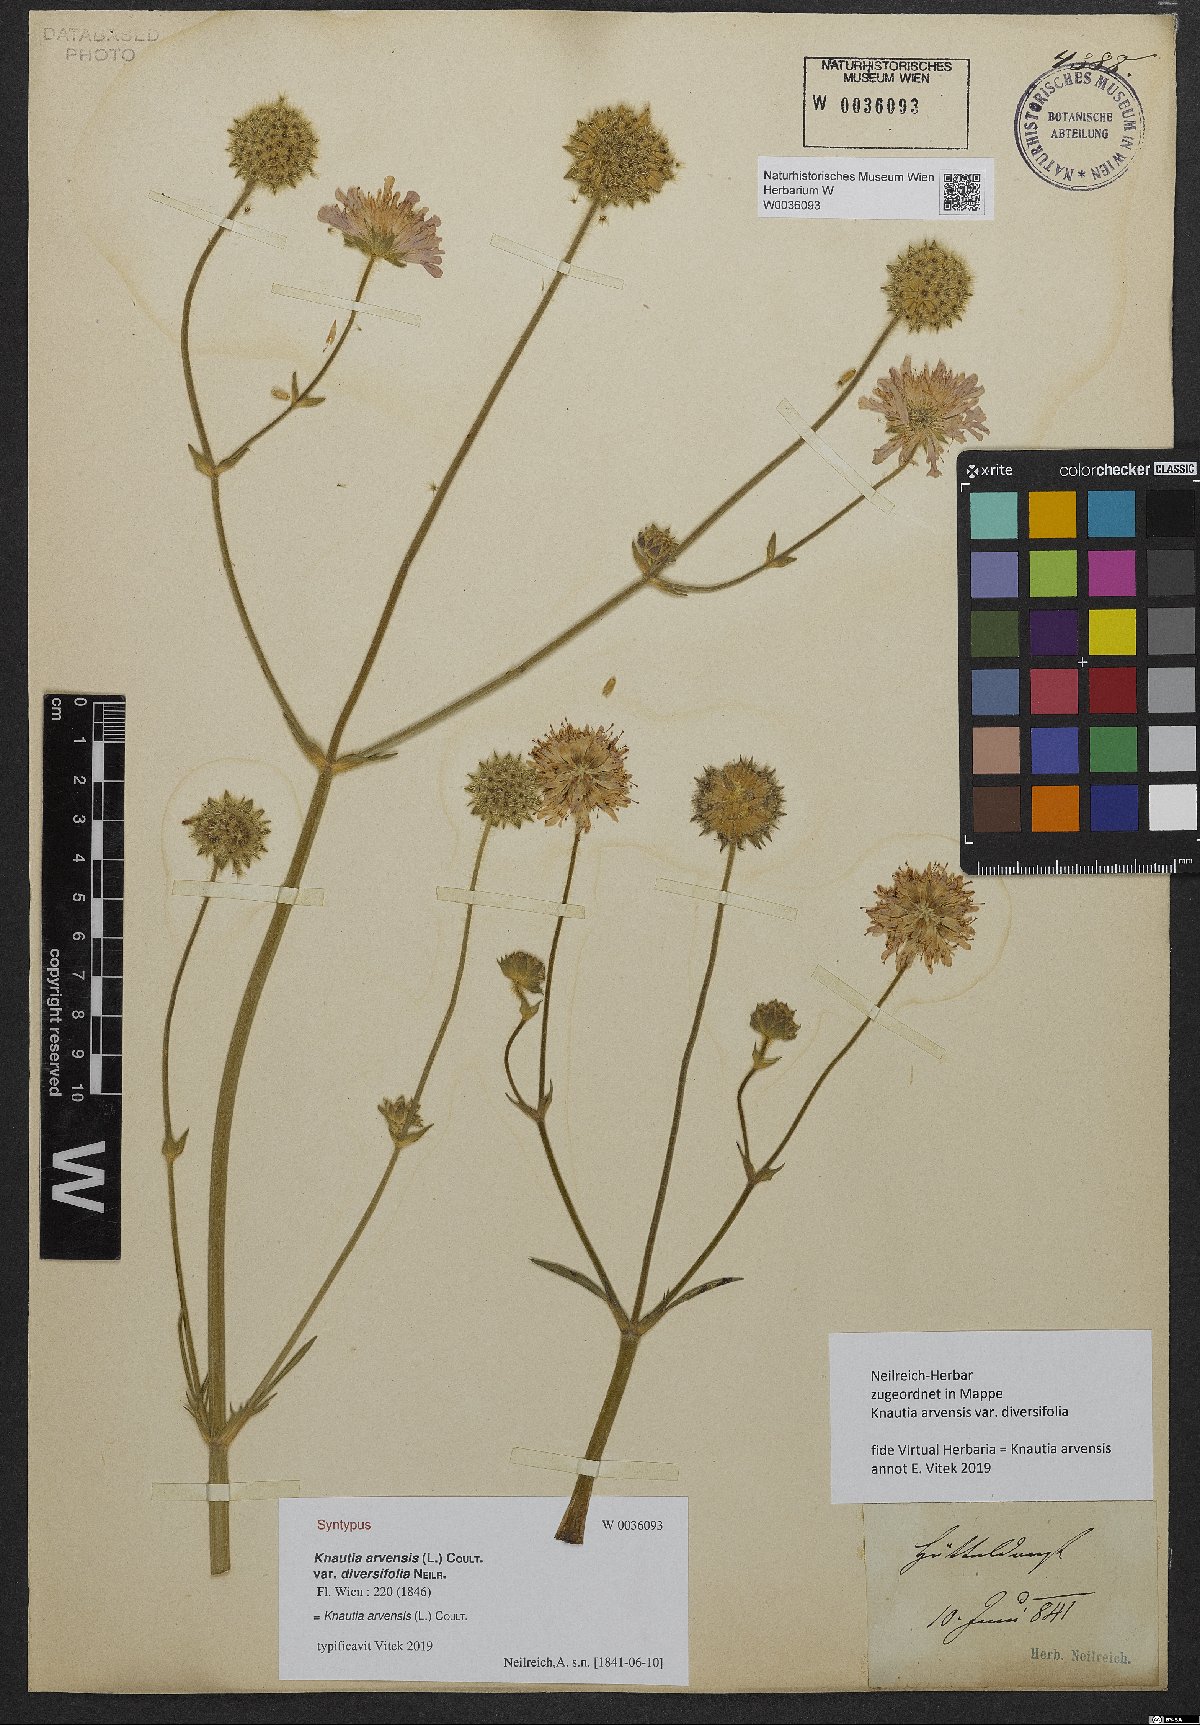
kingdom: Plantae
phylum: Tracheophyta
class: Magnoliopsida
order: Dipsacales
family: Caprifoliaceae
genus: Knautia
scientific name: Knautia arvensis
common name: Field scabiosa
